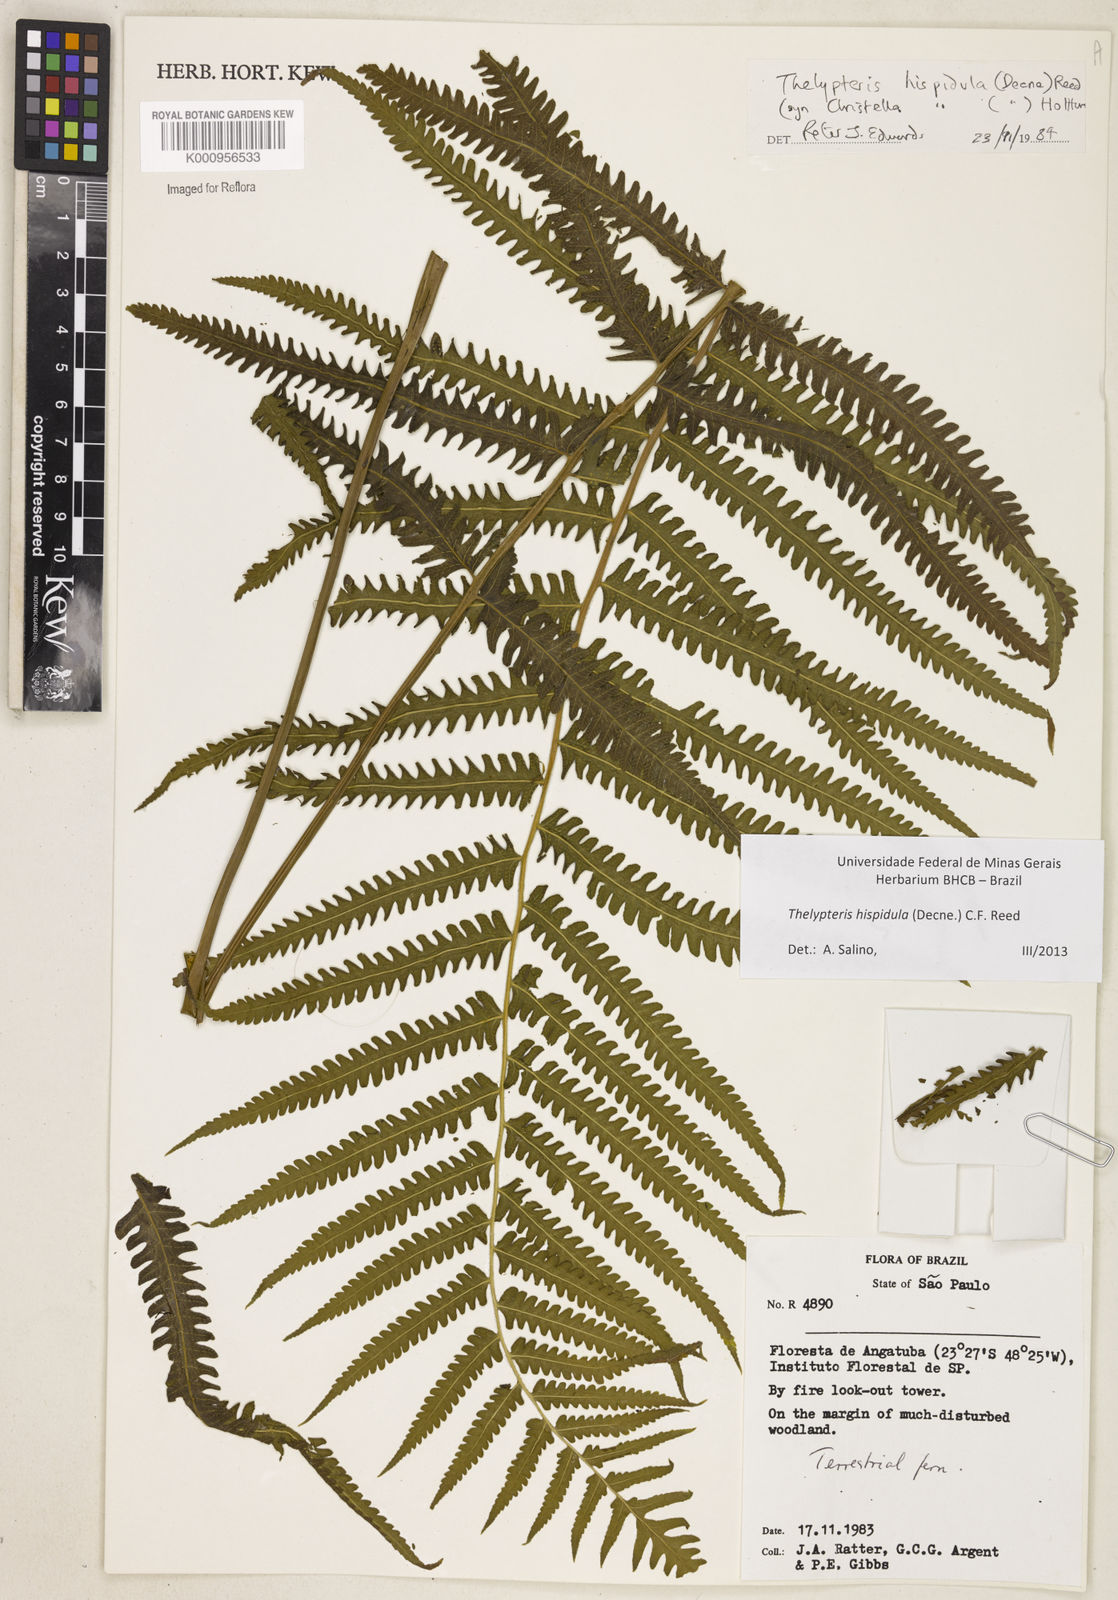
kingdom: Plantae
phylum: Tracheophyta
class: Polypodiopsida
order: Polypodiales
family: Thelypteridaceae
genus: Christella
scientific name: Christella hispidula
